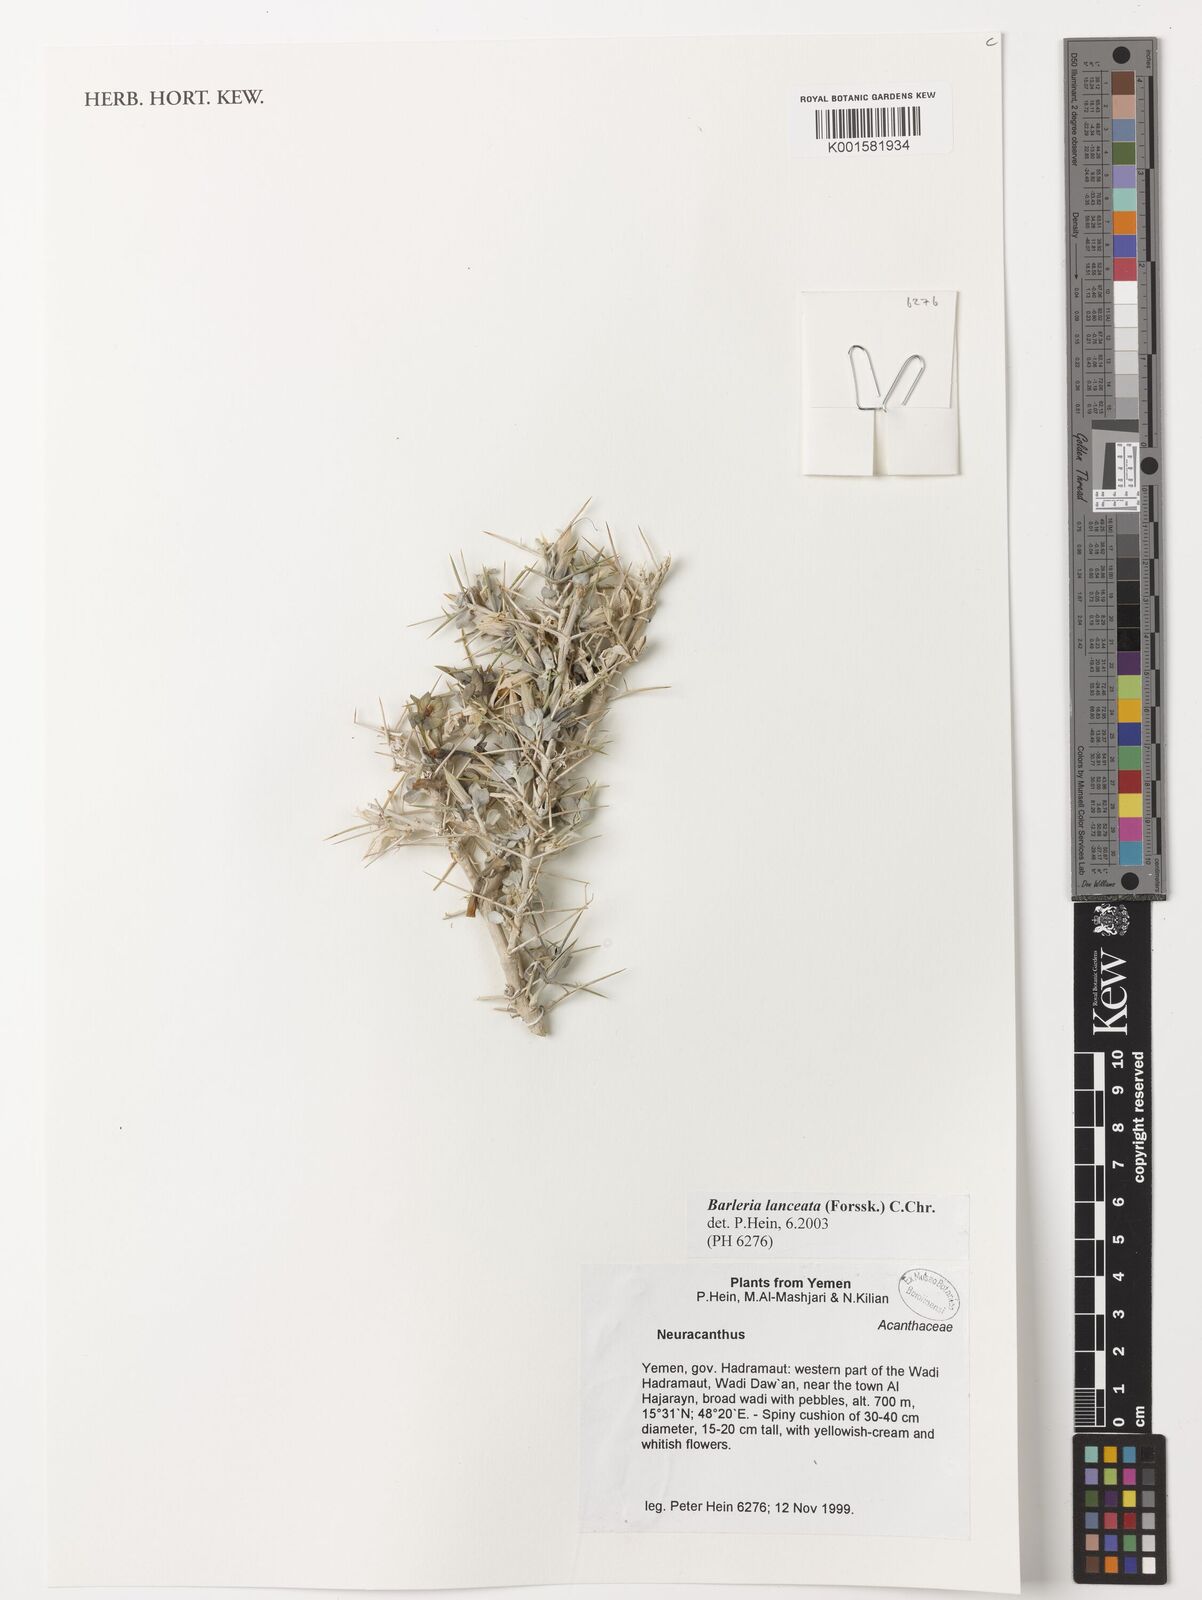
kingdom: Plantae
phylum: Tracheophyta
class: Magnoliopsida
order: Lamiales
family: Acanthaceae
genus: Barleria
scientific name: Barleria lanceata
